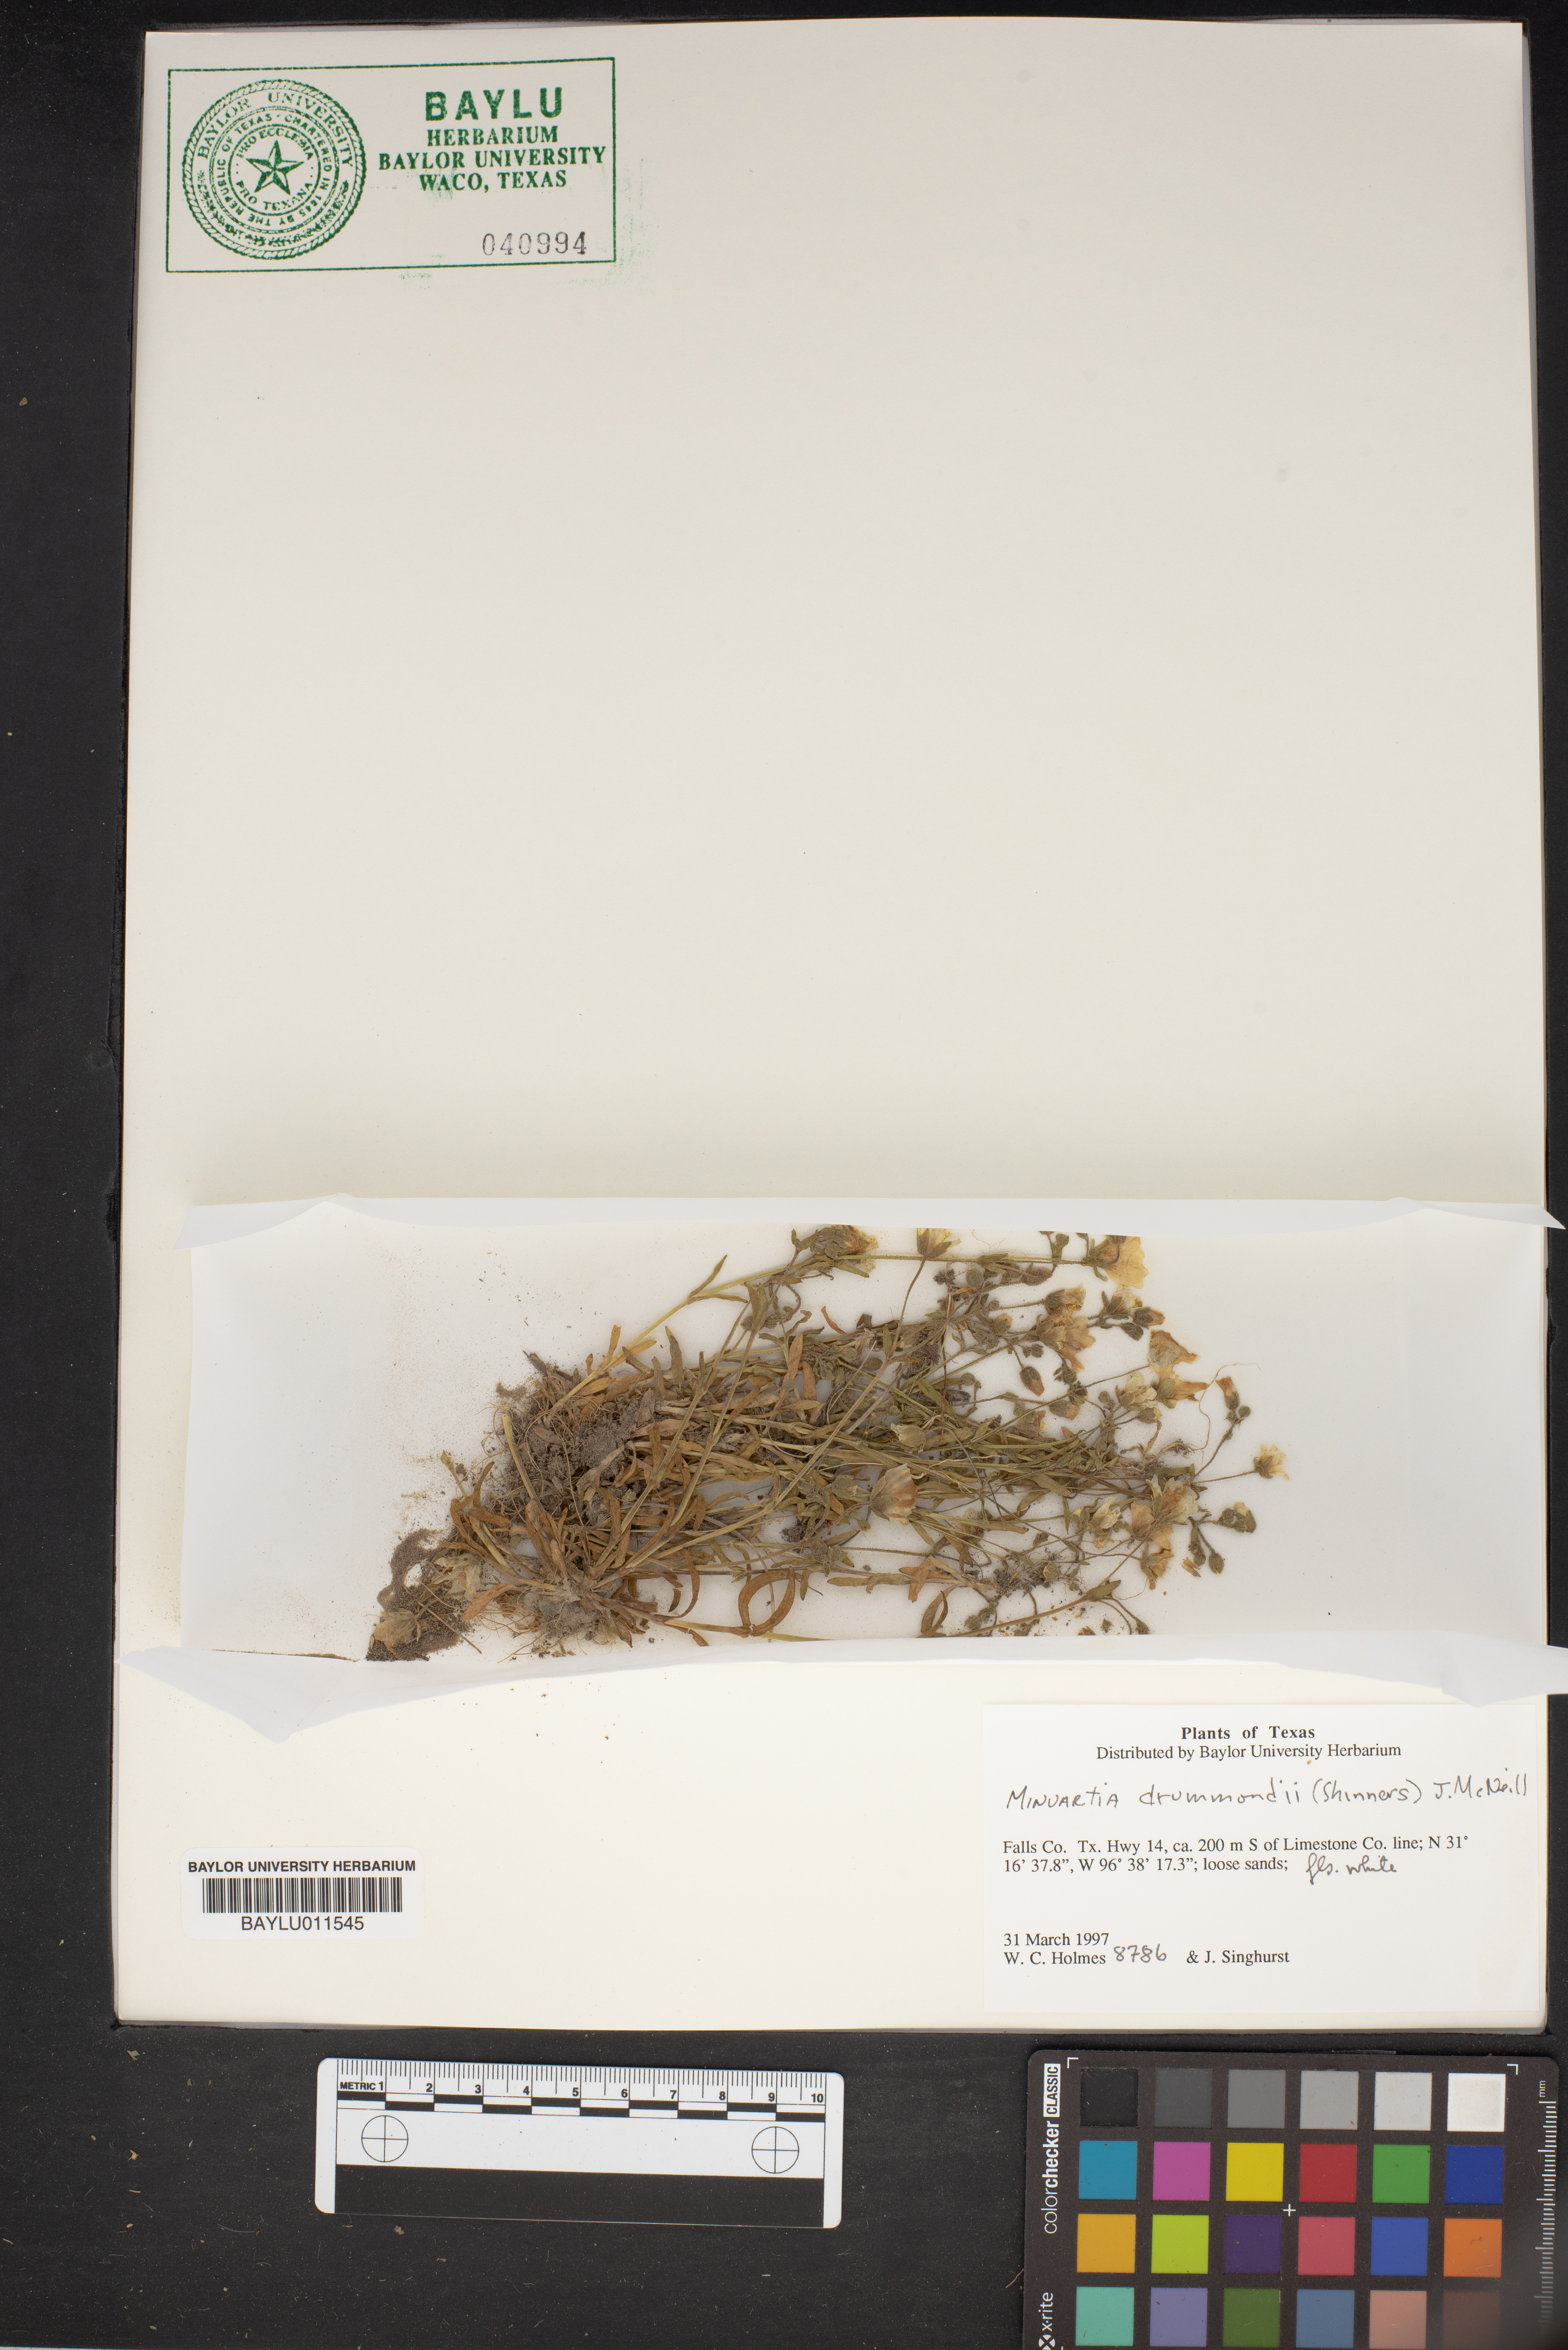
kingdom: Plantae
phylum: Tracheophyta
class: Magnoliopsida
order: Caryophyllales
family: Caryophyllaceae
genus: Geocarpon
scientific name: Geocarpon nuttallii
